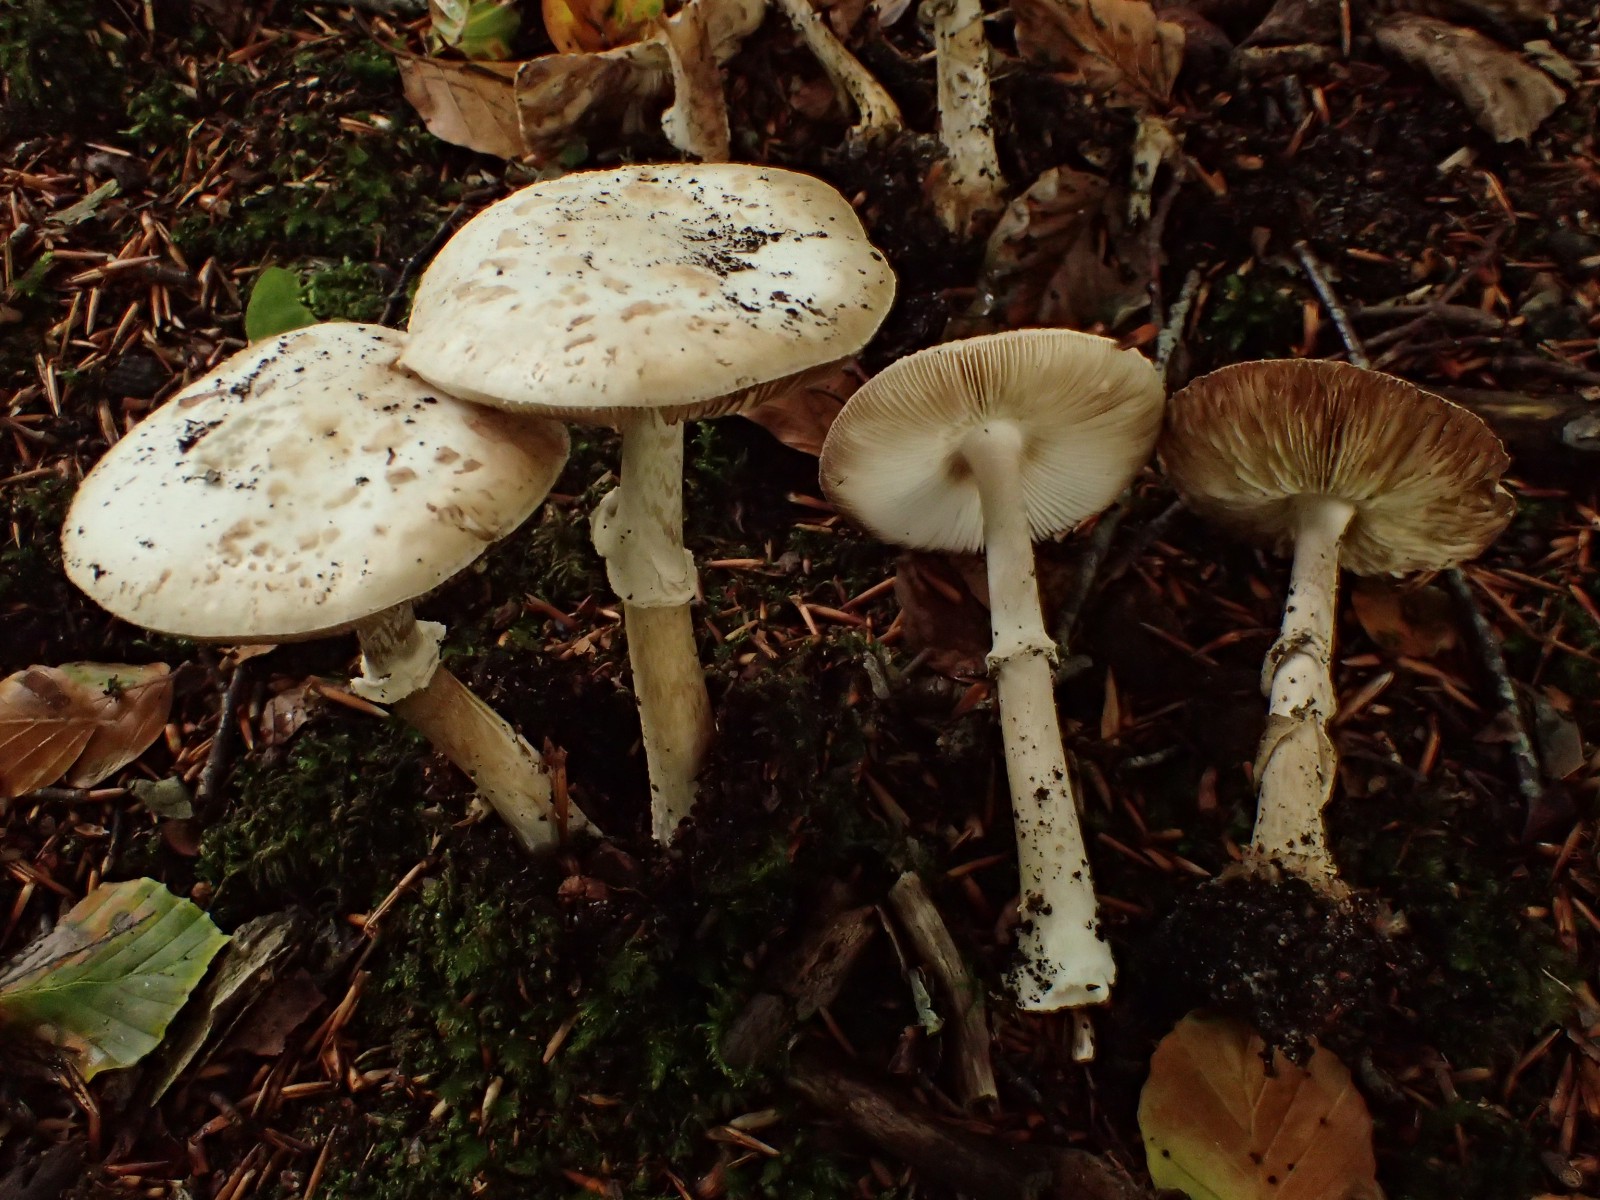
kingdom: Fungi
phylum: Basidiomycota
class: Agaricomycetes
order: Agaricales
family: Amanitaceae
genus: Amanita
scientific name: Amanita citrina
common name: False death-cap
